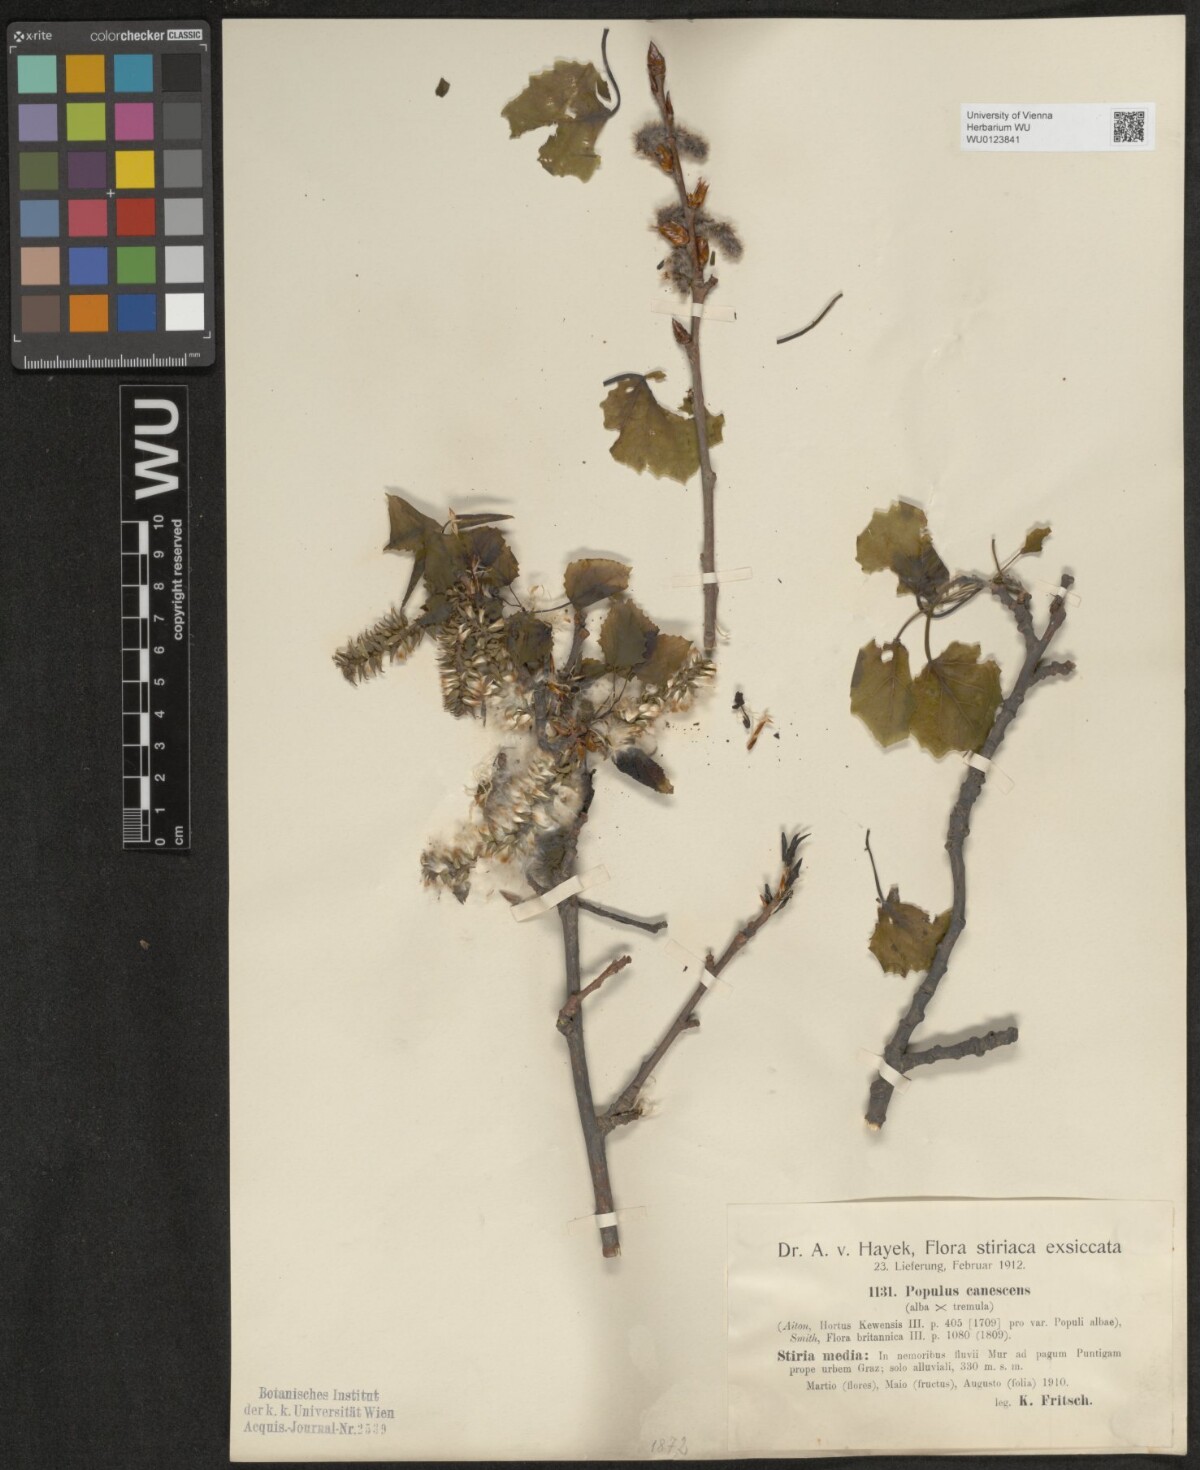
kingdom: Plantae
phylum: Tracheophyta
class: Magnoliopsida
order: Malpighiales
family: Salicaceae
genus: Populus
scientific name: Populus canescens
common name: Gray poplar
